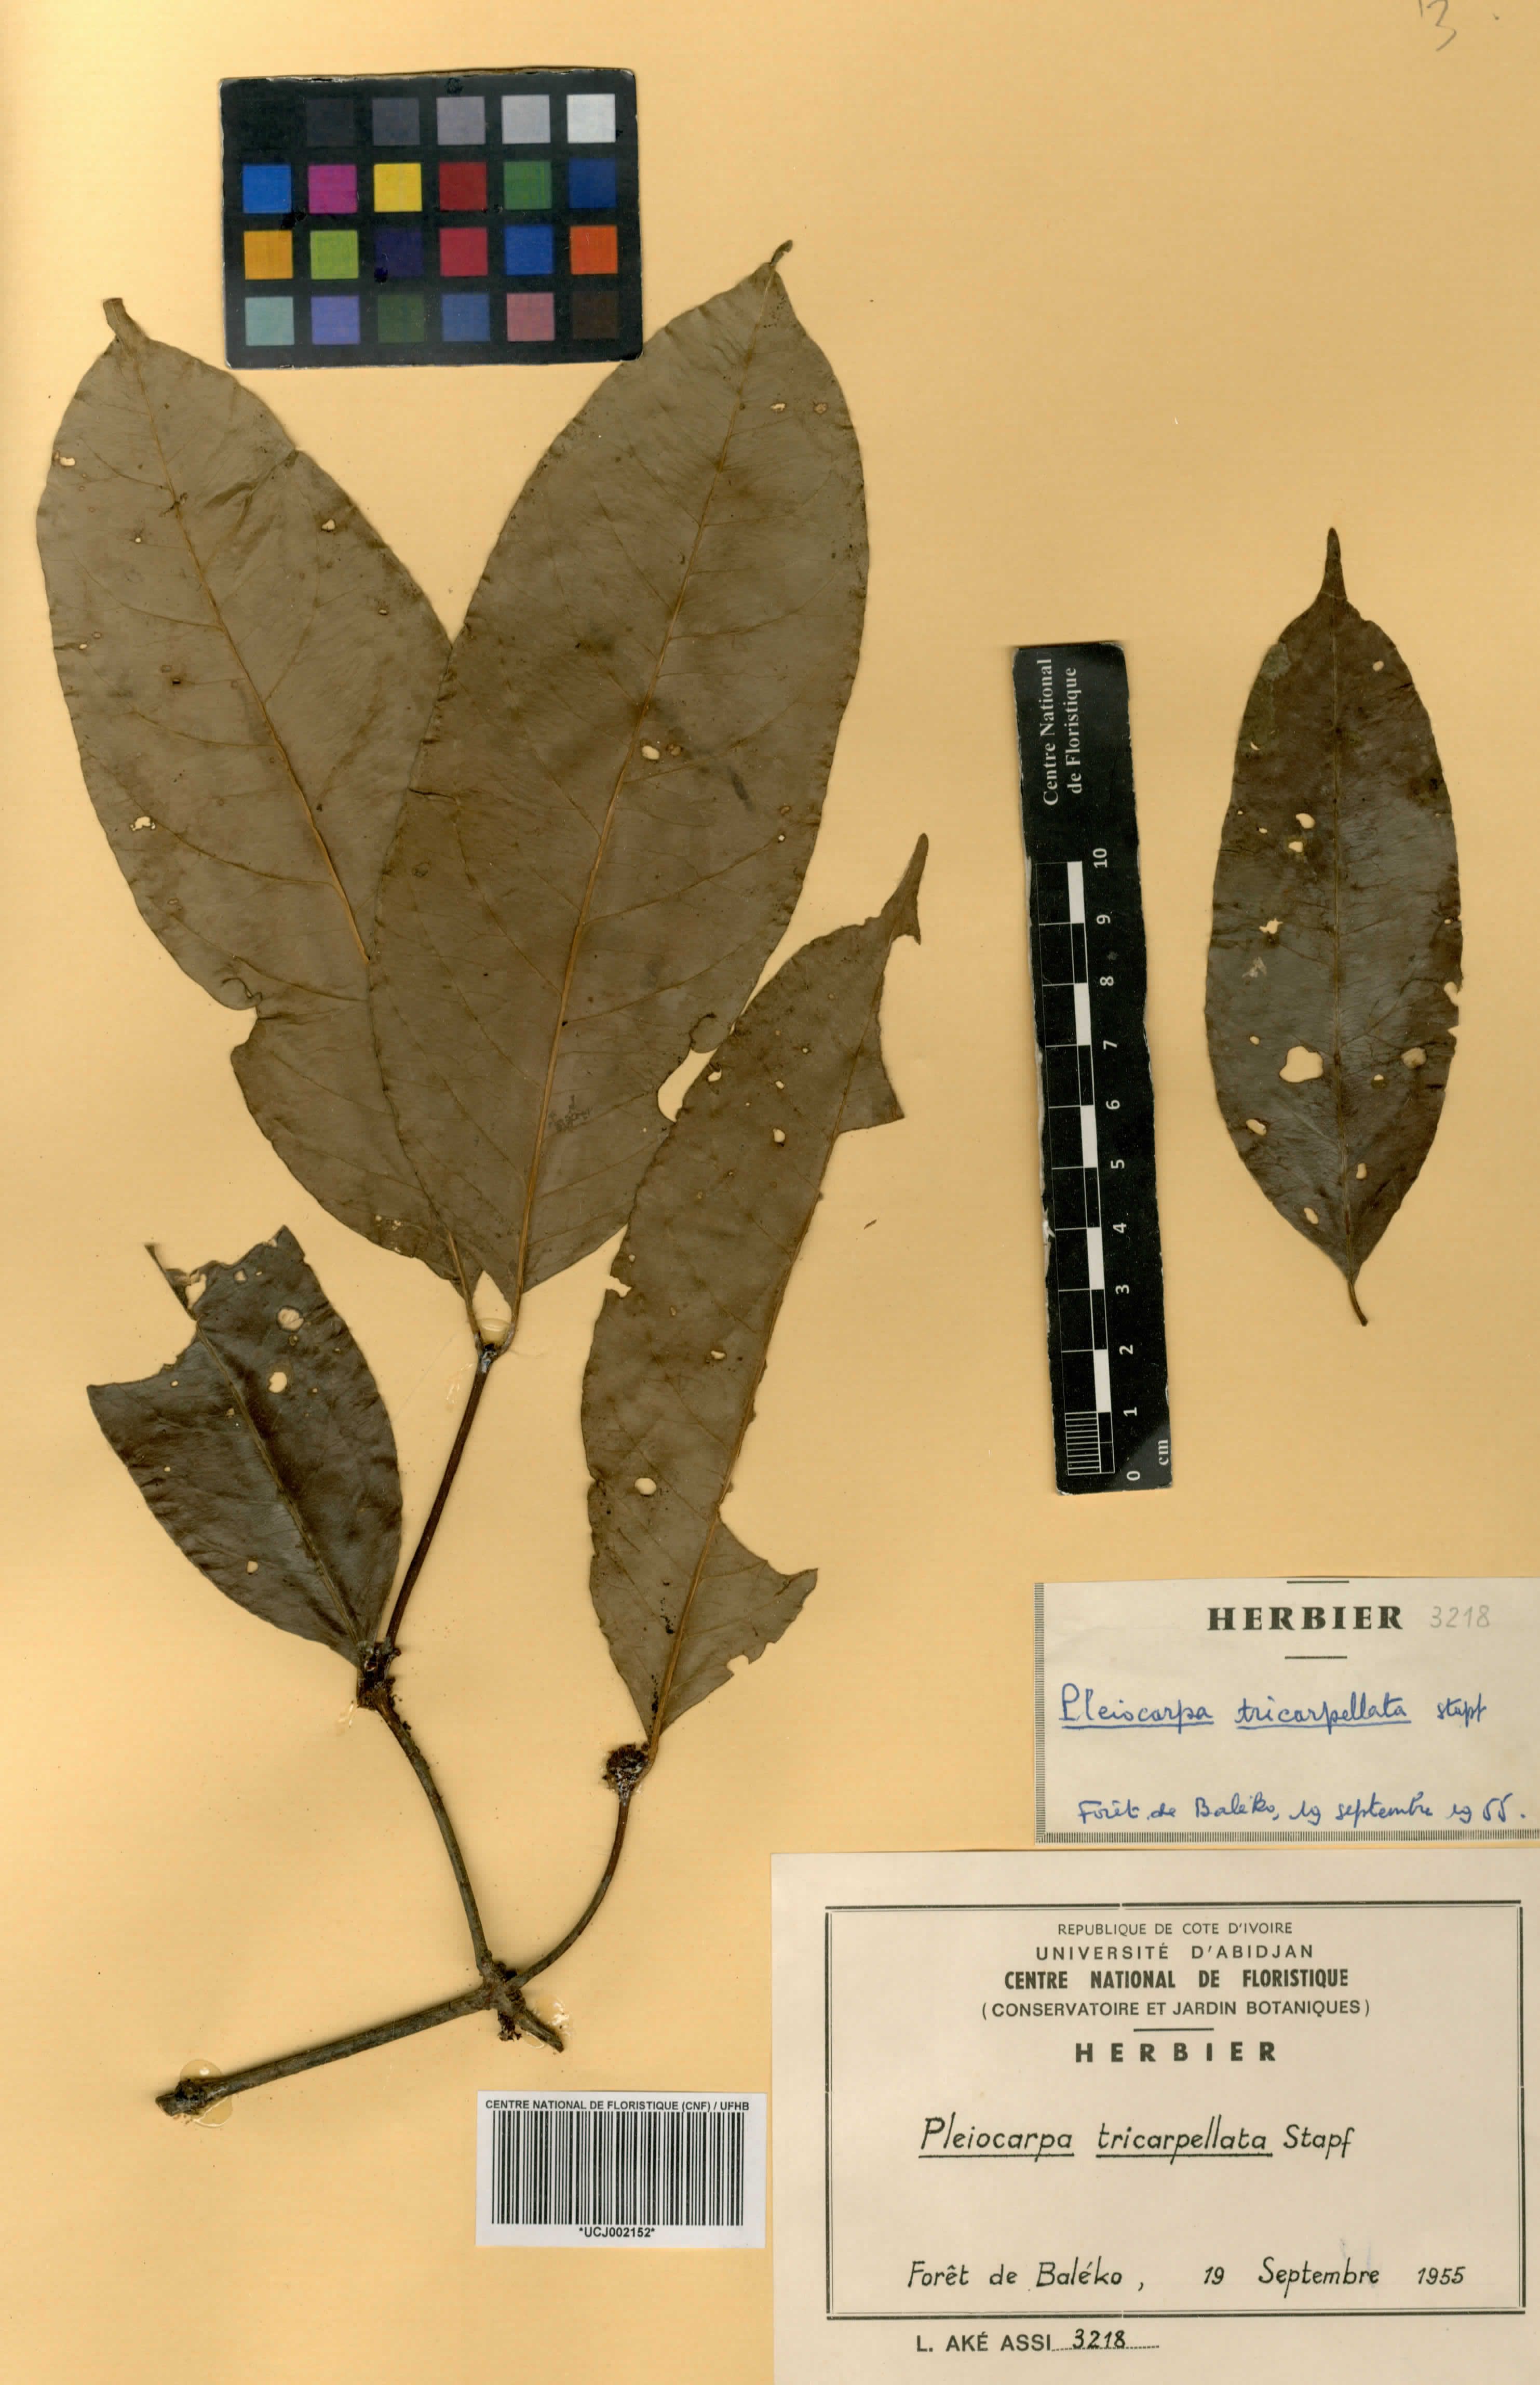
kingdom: Plantae
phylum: Tracheophyta
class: Magnoliopsida
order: Gentianales
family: Apocynaceae
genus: Pleiocarpa
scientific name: Pleiocarpa mutica
